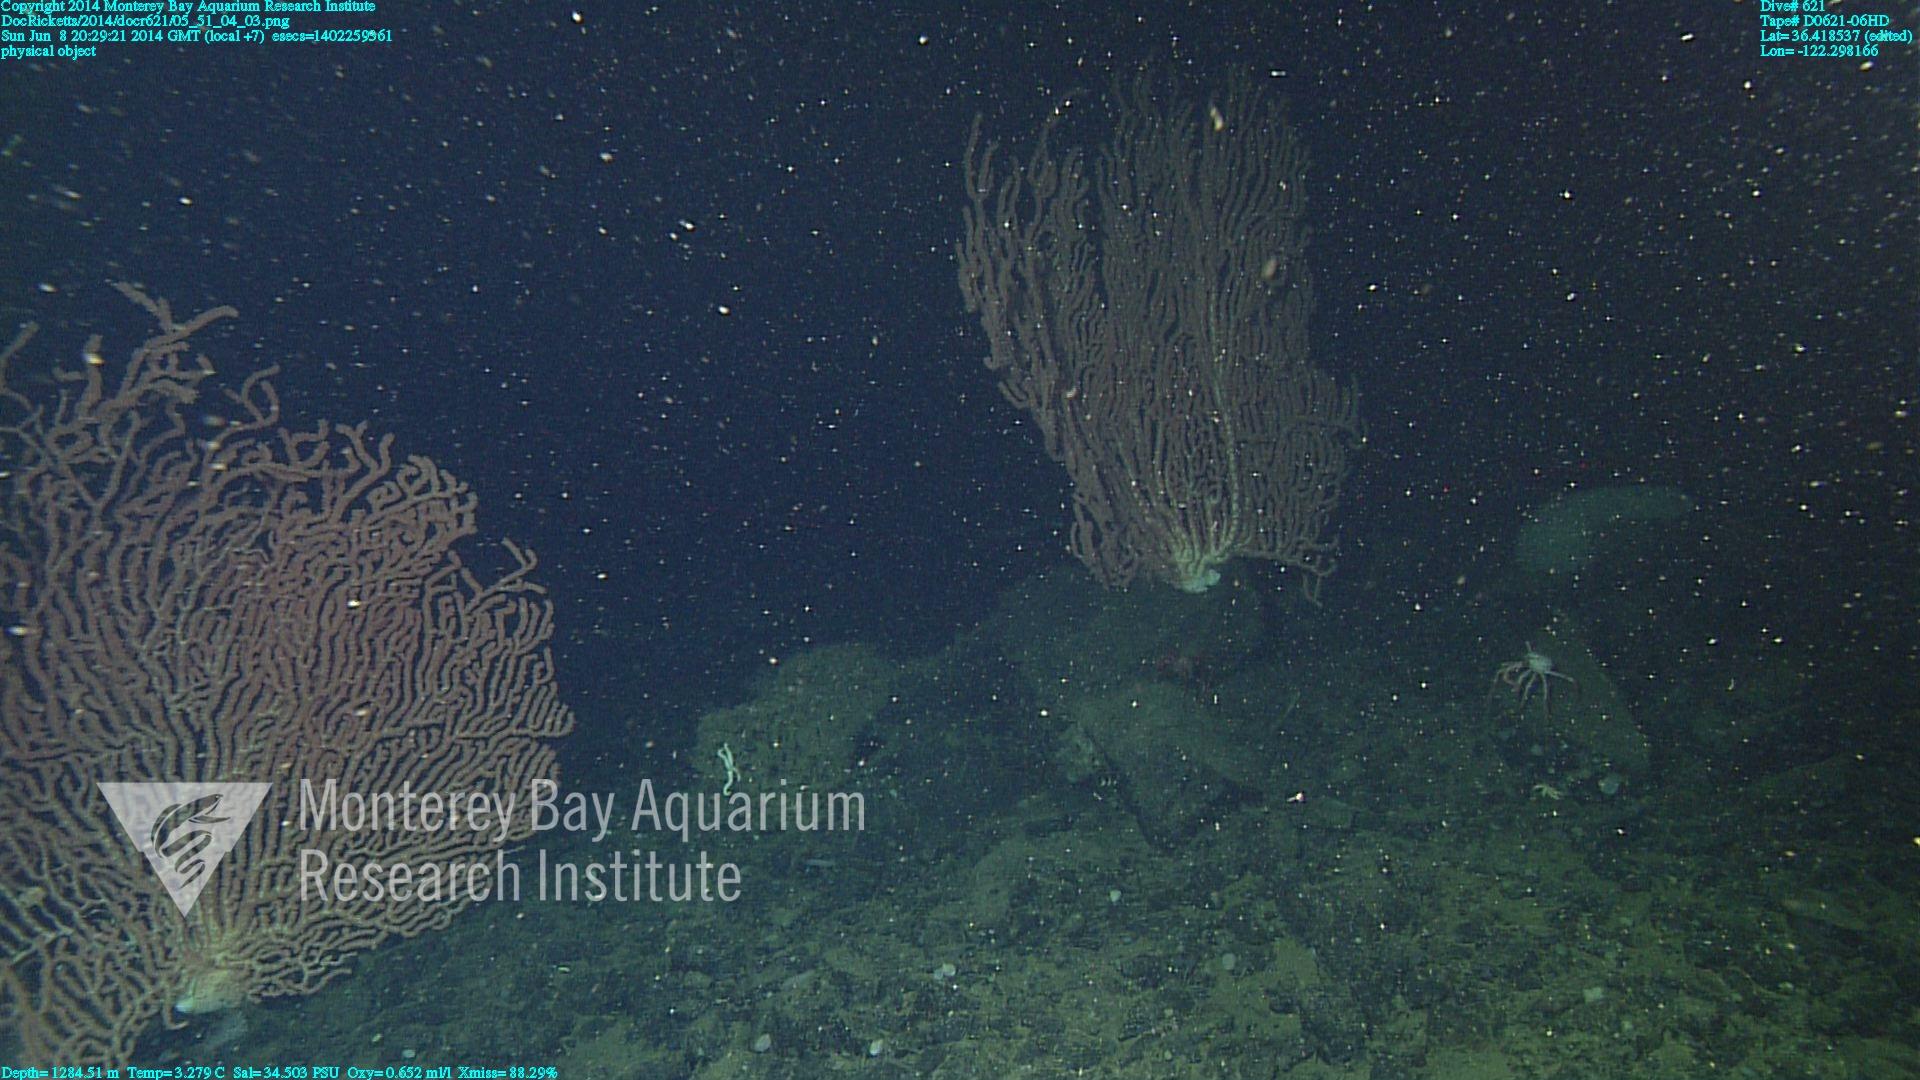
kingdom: Animalia
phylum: Cnidaria
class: Anthozoa
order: Scleralcyonacea
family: Keratoisididae
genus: Keratoisis
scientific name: Keratoisis
